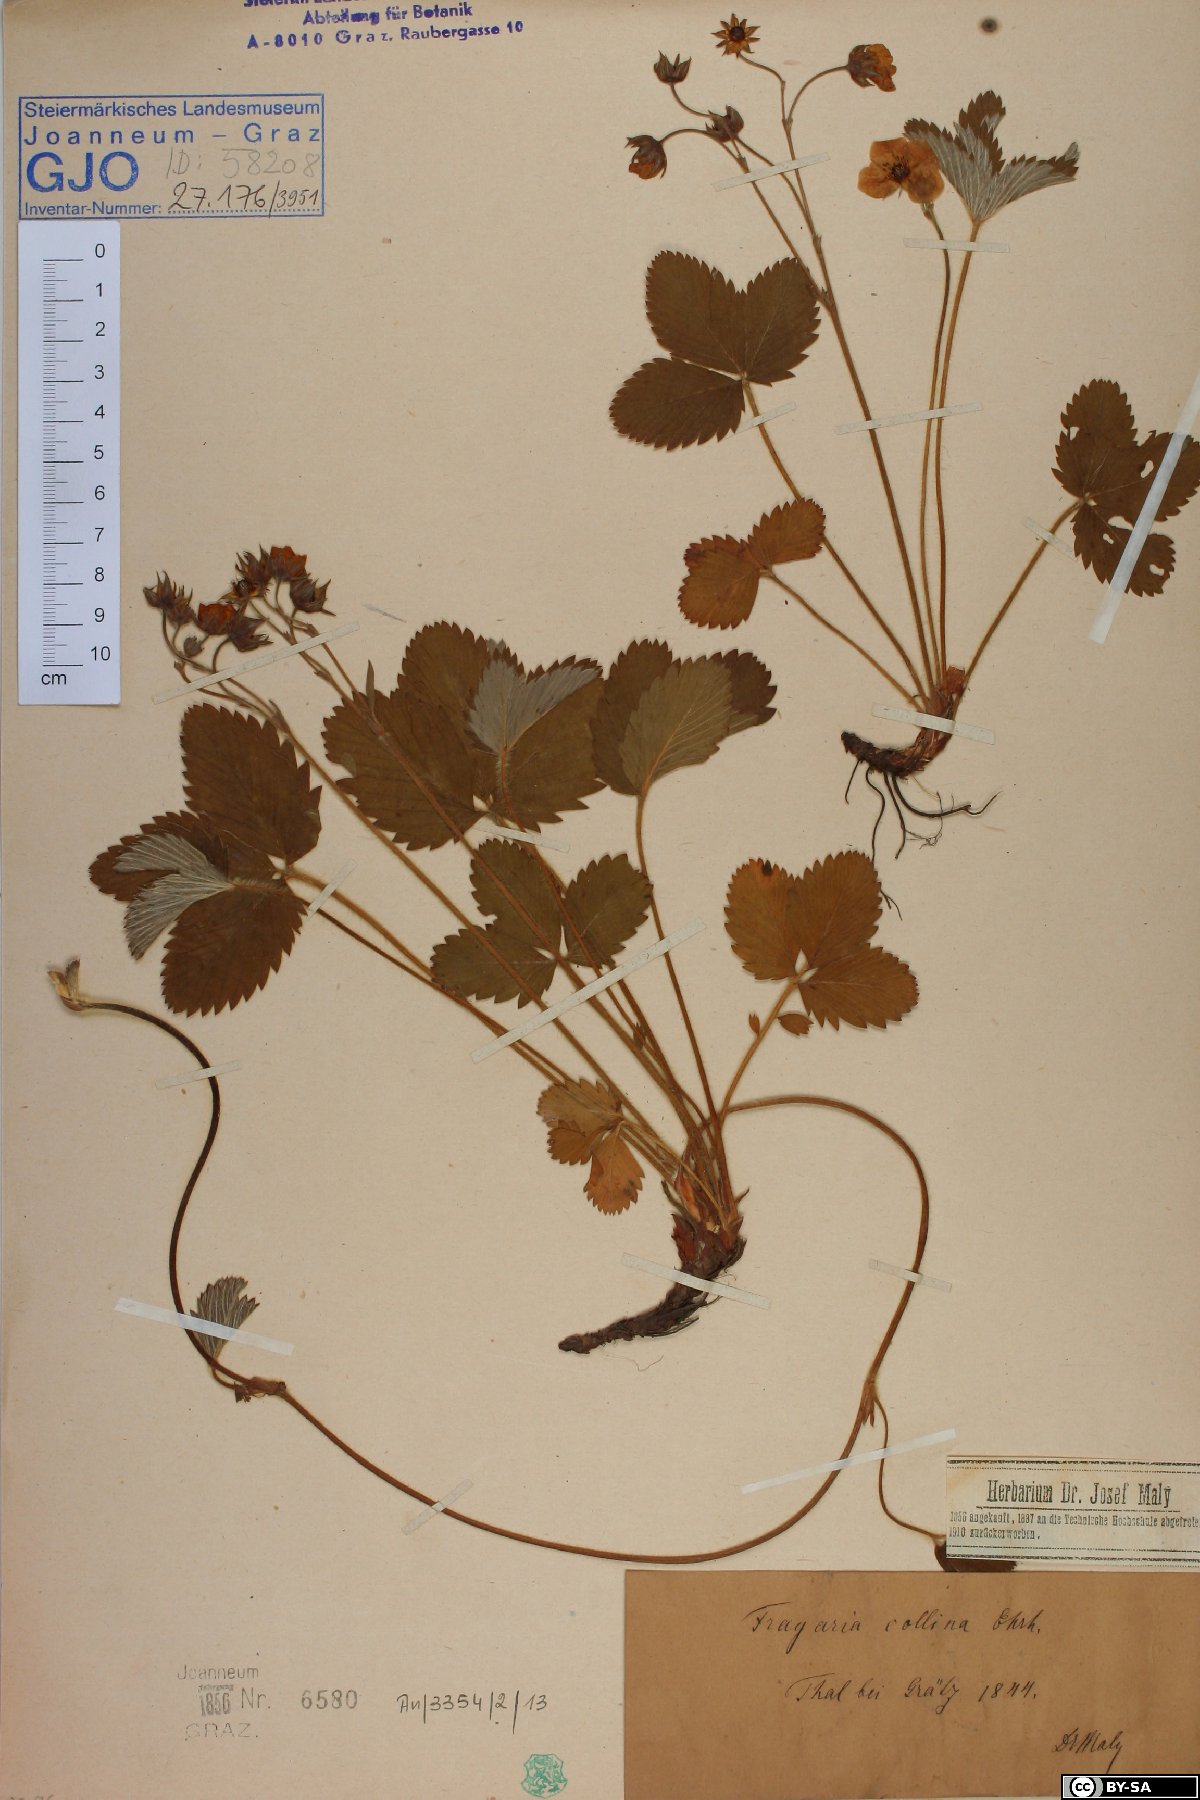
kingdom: Plantae
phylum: Tracheophyta
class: Magnoliopsida
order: Rosales
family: Rosaceae
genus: Fragaria
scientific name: Fragaria viridis
